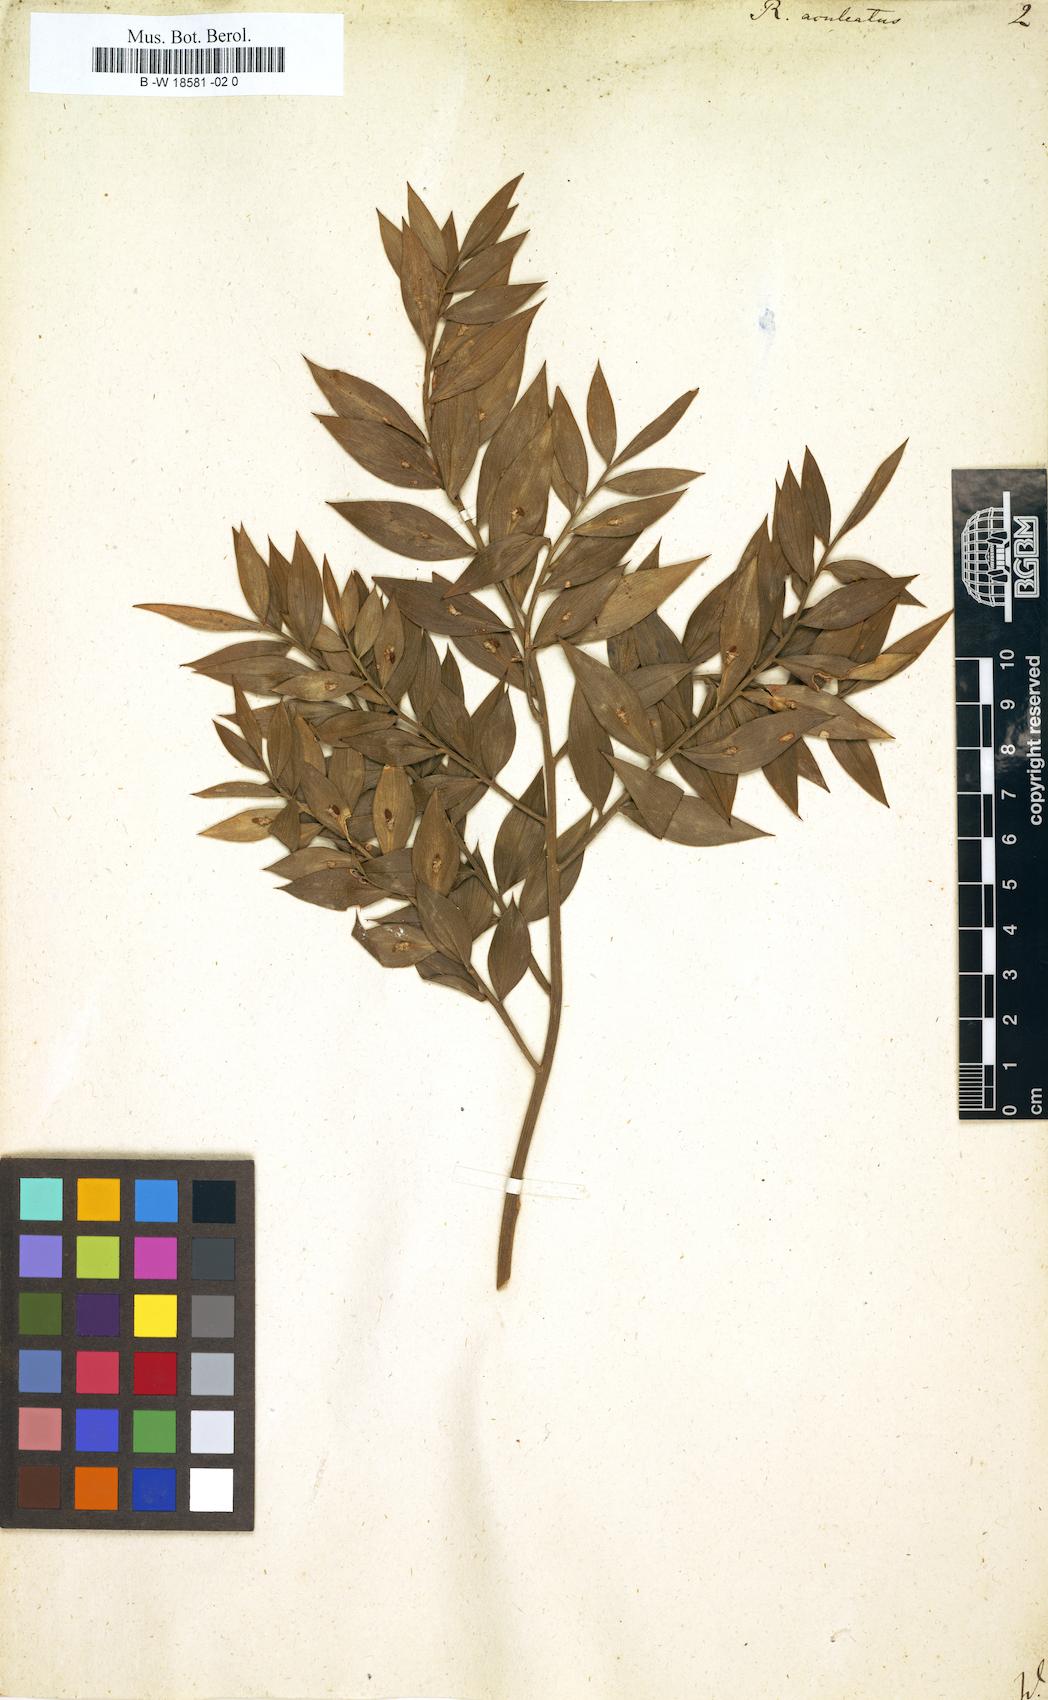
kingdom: Plantae
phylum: Tracheophyta
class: Liliopsida
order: Asparagales
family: Asparagaceae
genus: Ruscus
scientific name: Ruscus aculeatus
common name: Butcher's-broom
